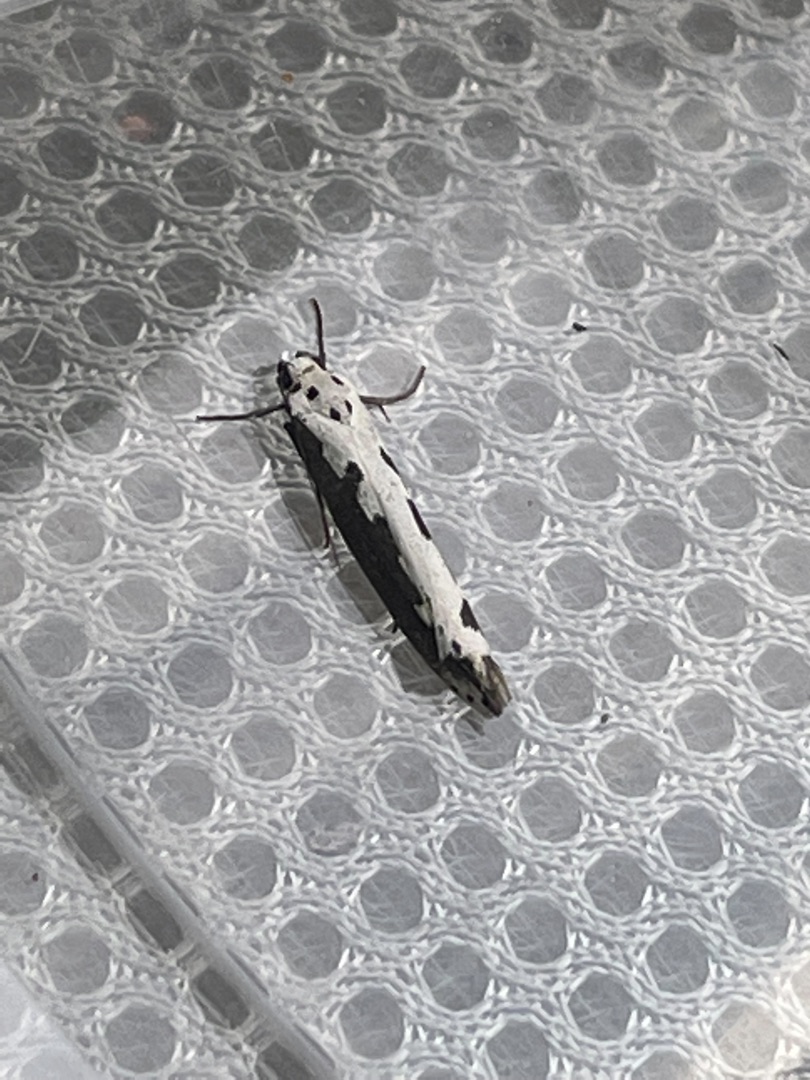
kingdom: Animalia
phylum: Arthropoda
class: Insecta
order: Lepidoptera
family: Ethmiidae
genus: Ethmia
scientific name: Ethmia bipunctella
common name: Slangehovedmøl
